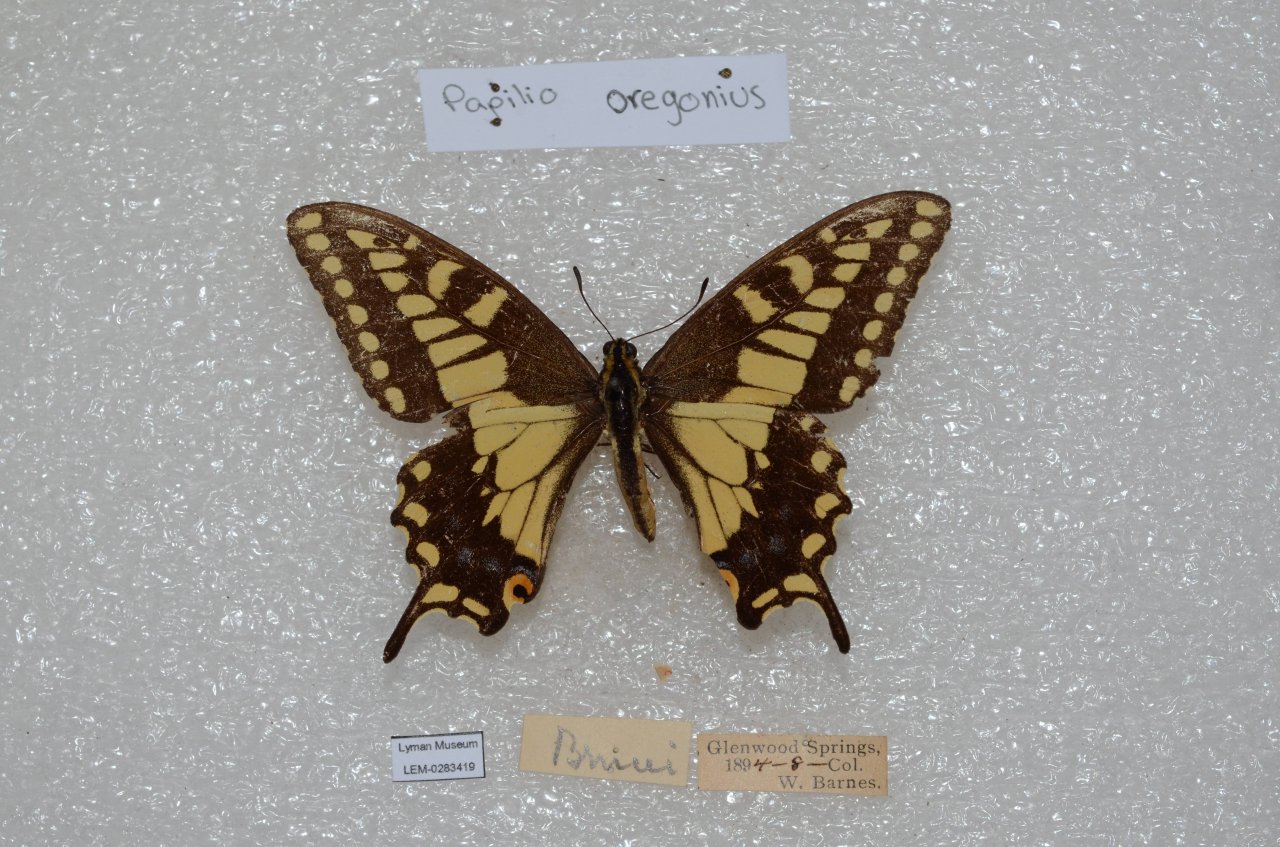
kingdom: Animalia
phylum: Arthropoda
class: Insecta
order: Lepidoptera
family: Papilionidae
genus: Papilio
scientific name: Papilio machaon
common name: Old World Swallowtail
